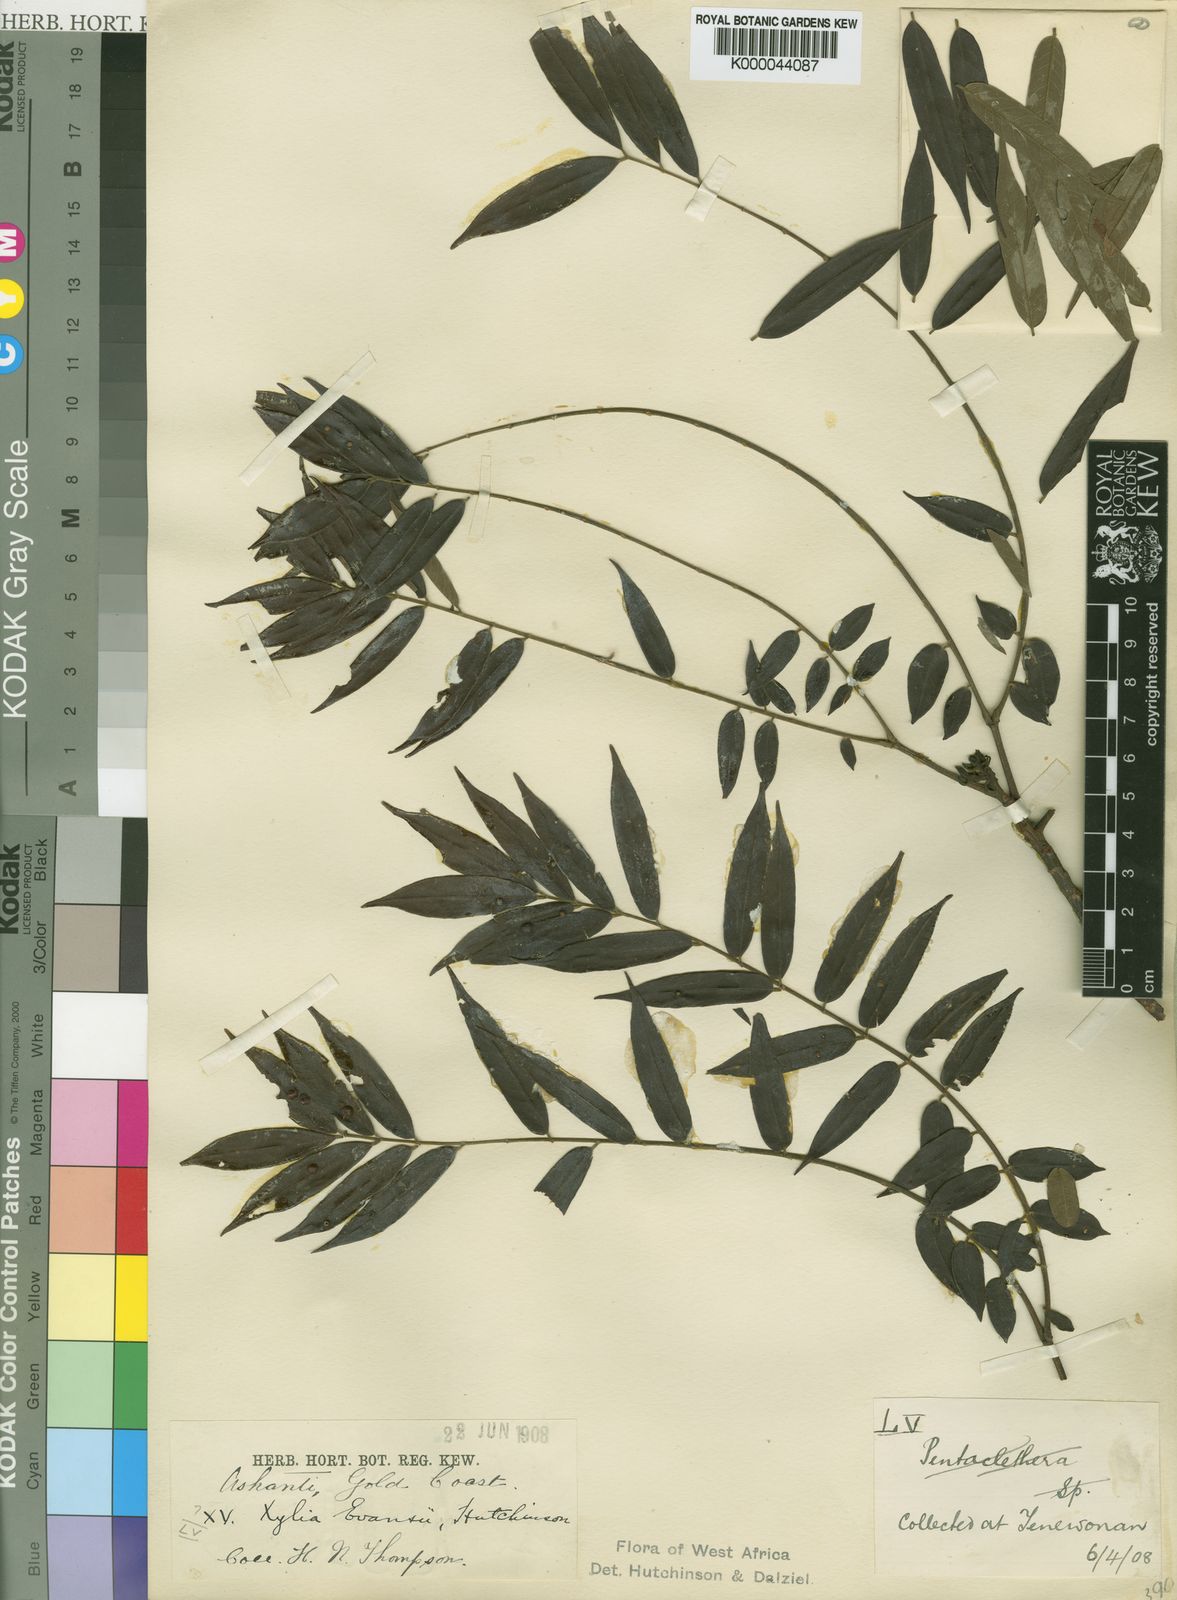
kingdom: Plantae
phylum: Tracheophyta
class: Magnoliopsida
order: Fabales
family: Fabaceae
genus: Xylia
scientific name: Xylia evansii
